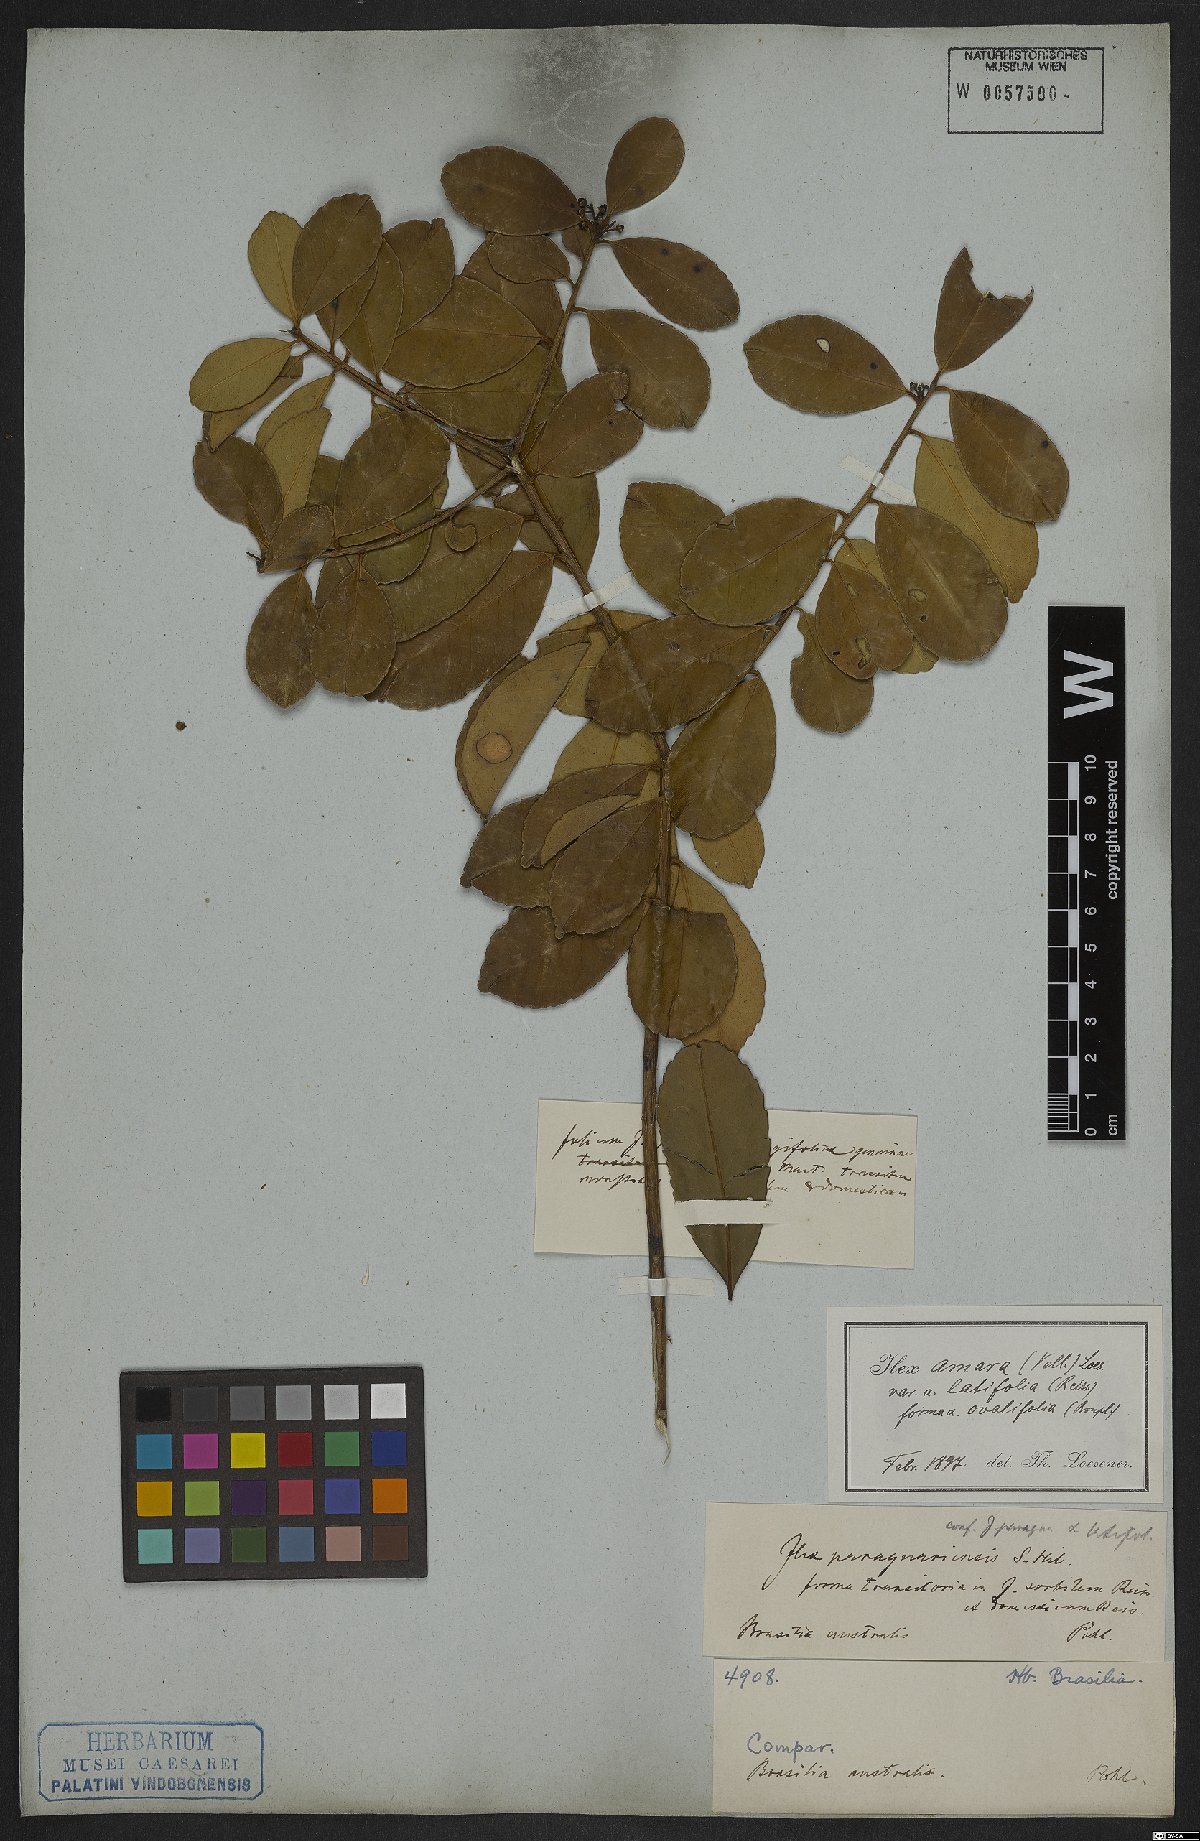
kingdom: Plantae
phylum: Tracheophyta
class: Magnoliopsida
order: Aquifoliales
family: Aquifoliaceae
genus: Ilex
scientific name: Ilex dumosa
